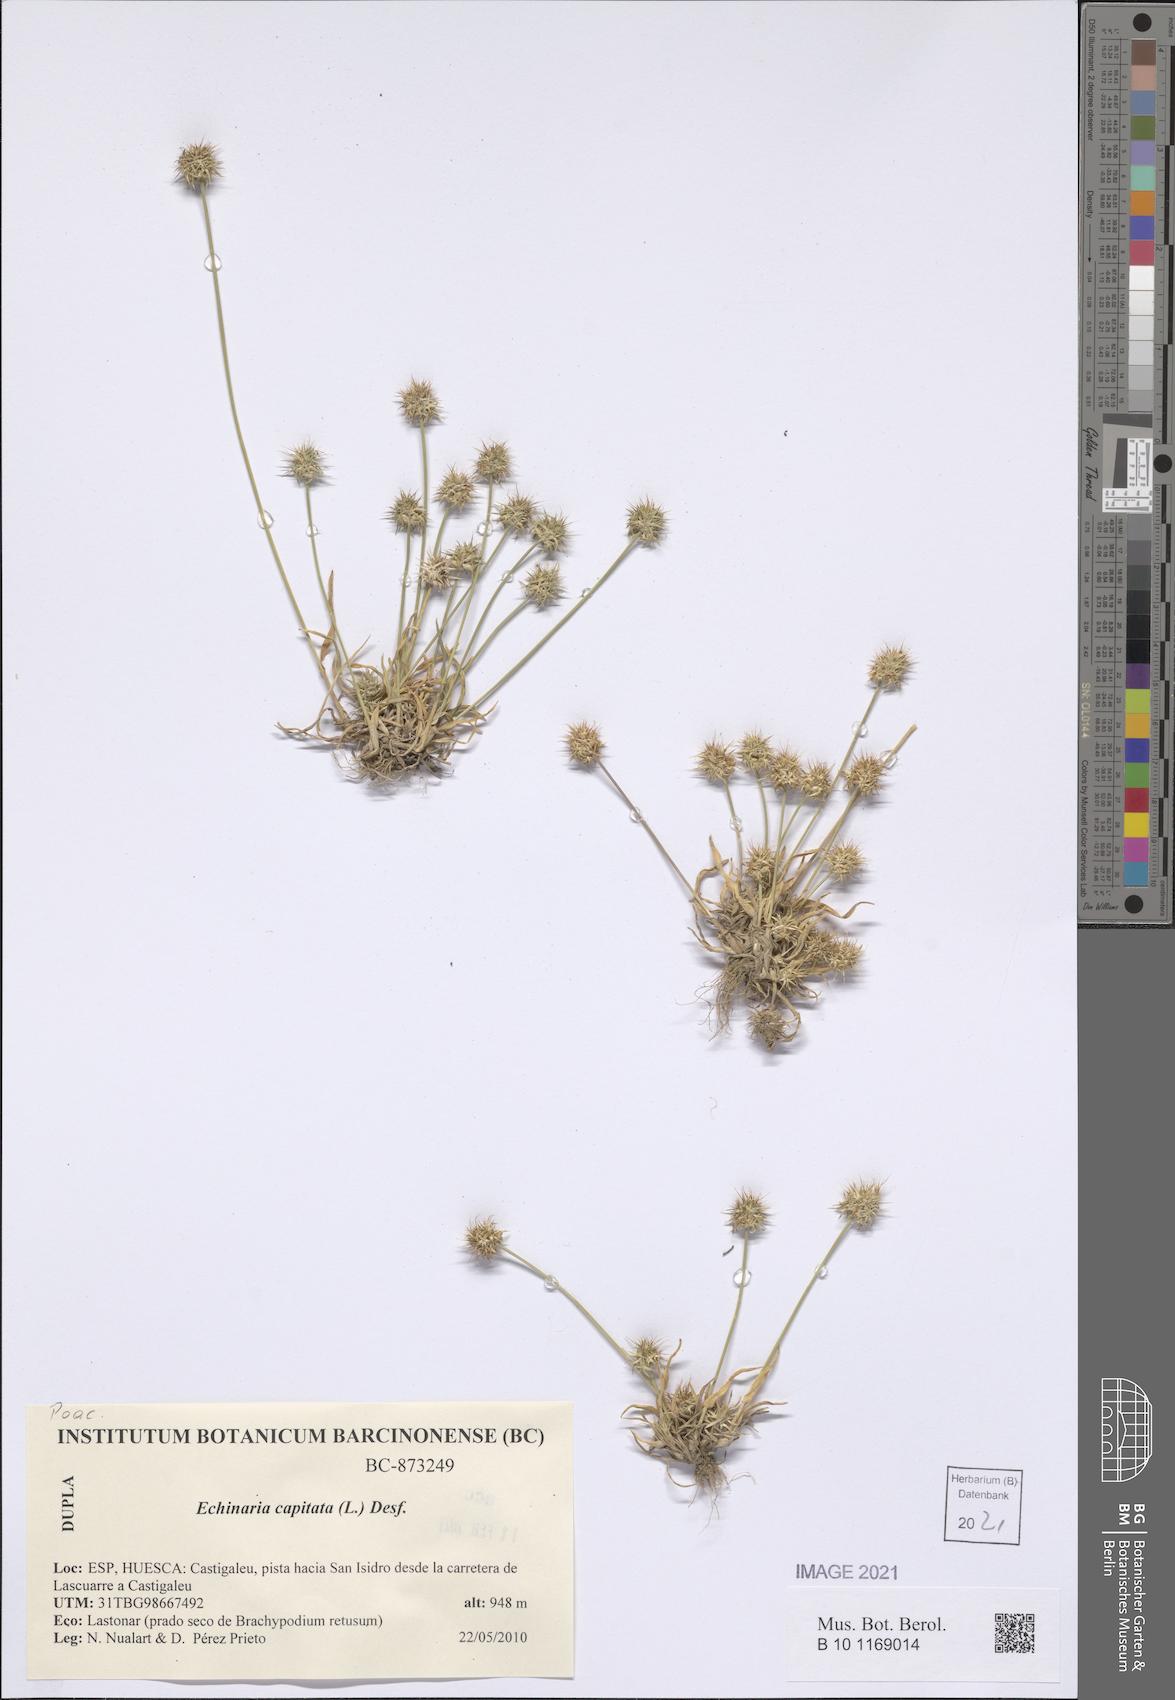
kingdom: Plantae
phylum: Tracheophyta
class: Liliopsida
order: Poales
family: Poaceae
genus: Echinaria
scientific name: Echinaria capitata
